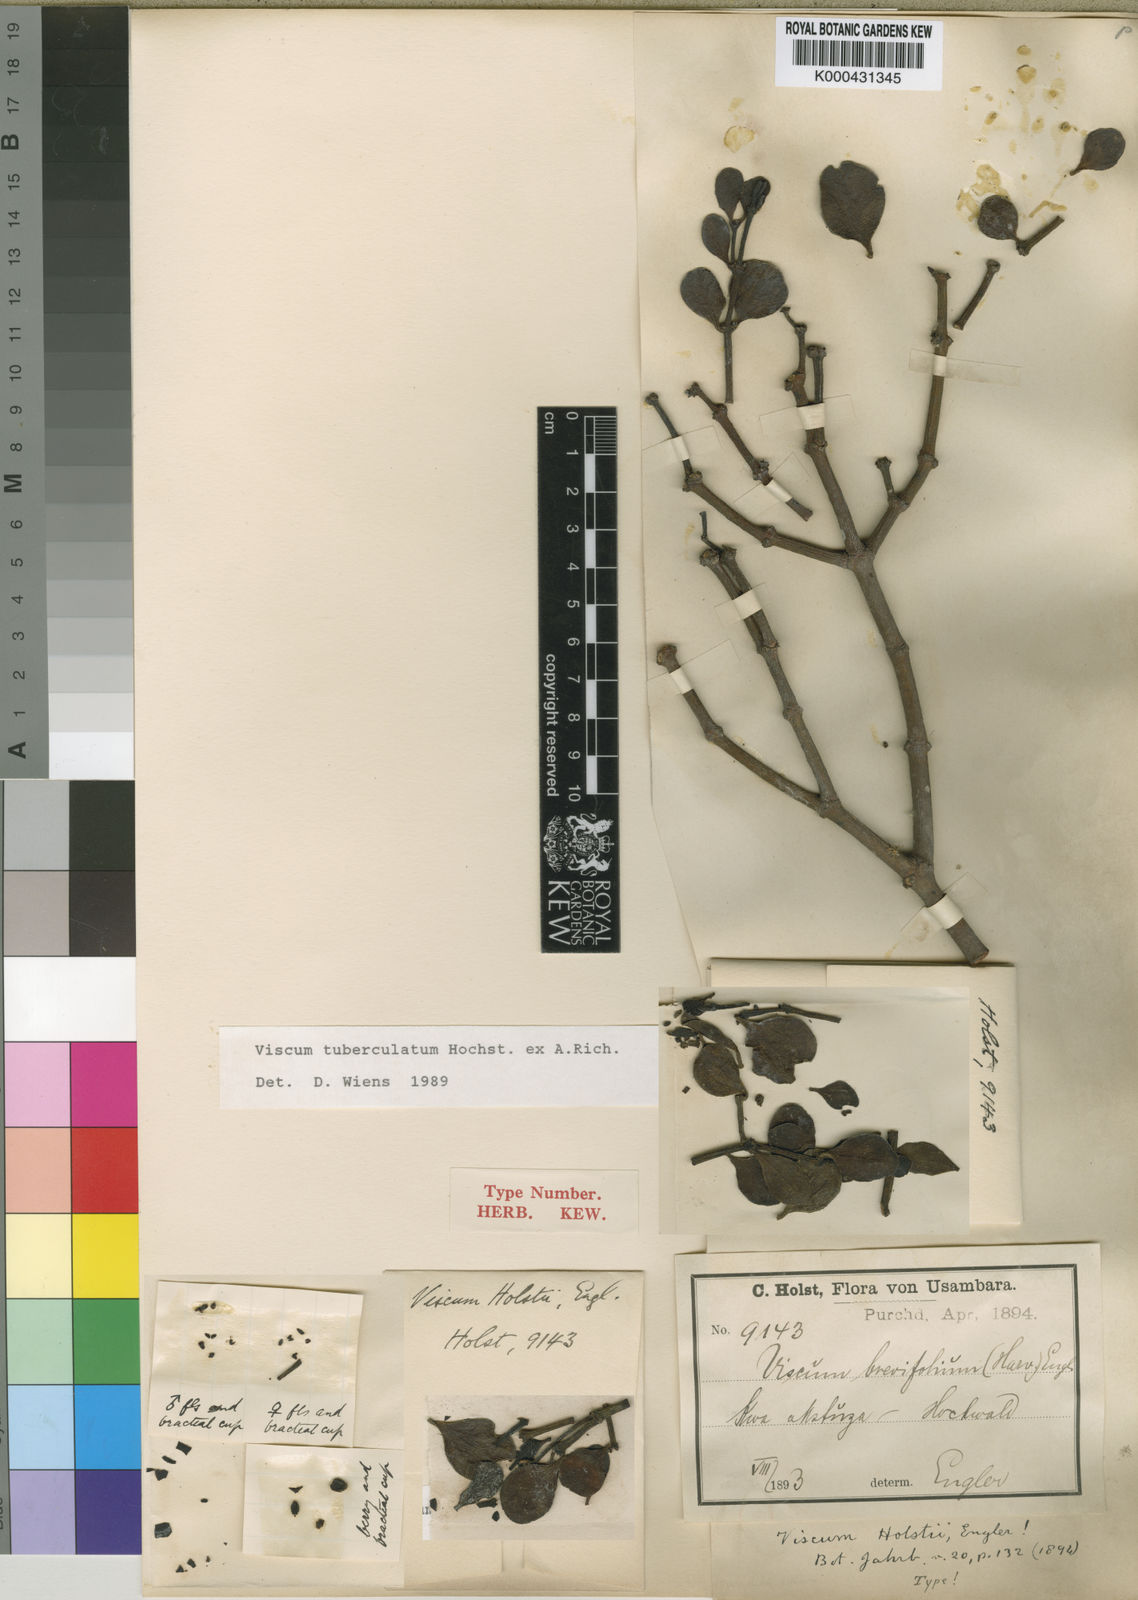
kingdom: Plantae
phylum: Tracheophyta
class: Magnoliopsida
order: Santalales
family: Viscaceae
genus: Viscum
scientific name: Viscum tuberculatum
